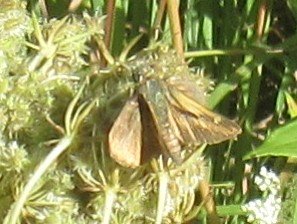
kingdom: Animalia
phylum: Arthropoda
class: Insecta
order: Lepidoptera
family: Hesperiidae
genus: Polites
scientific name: Polites themistocles
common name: Tawny-edged Skipper
